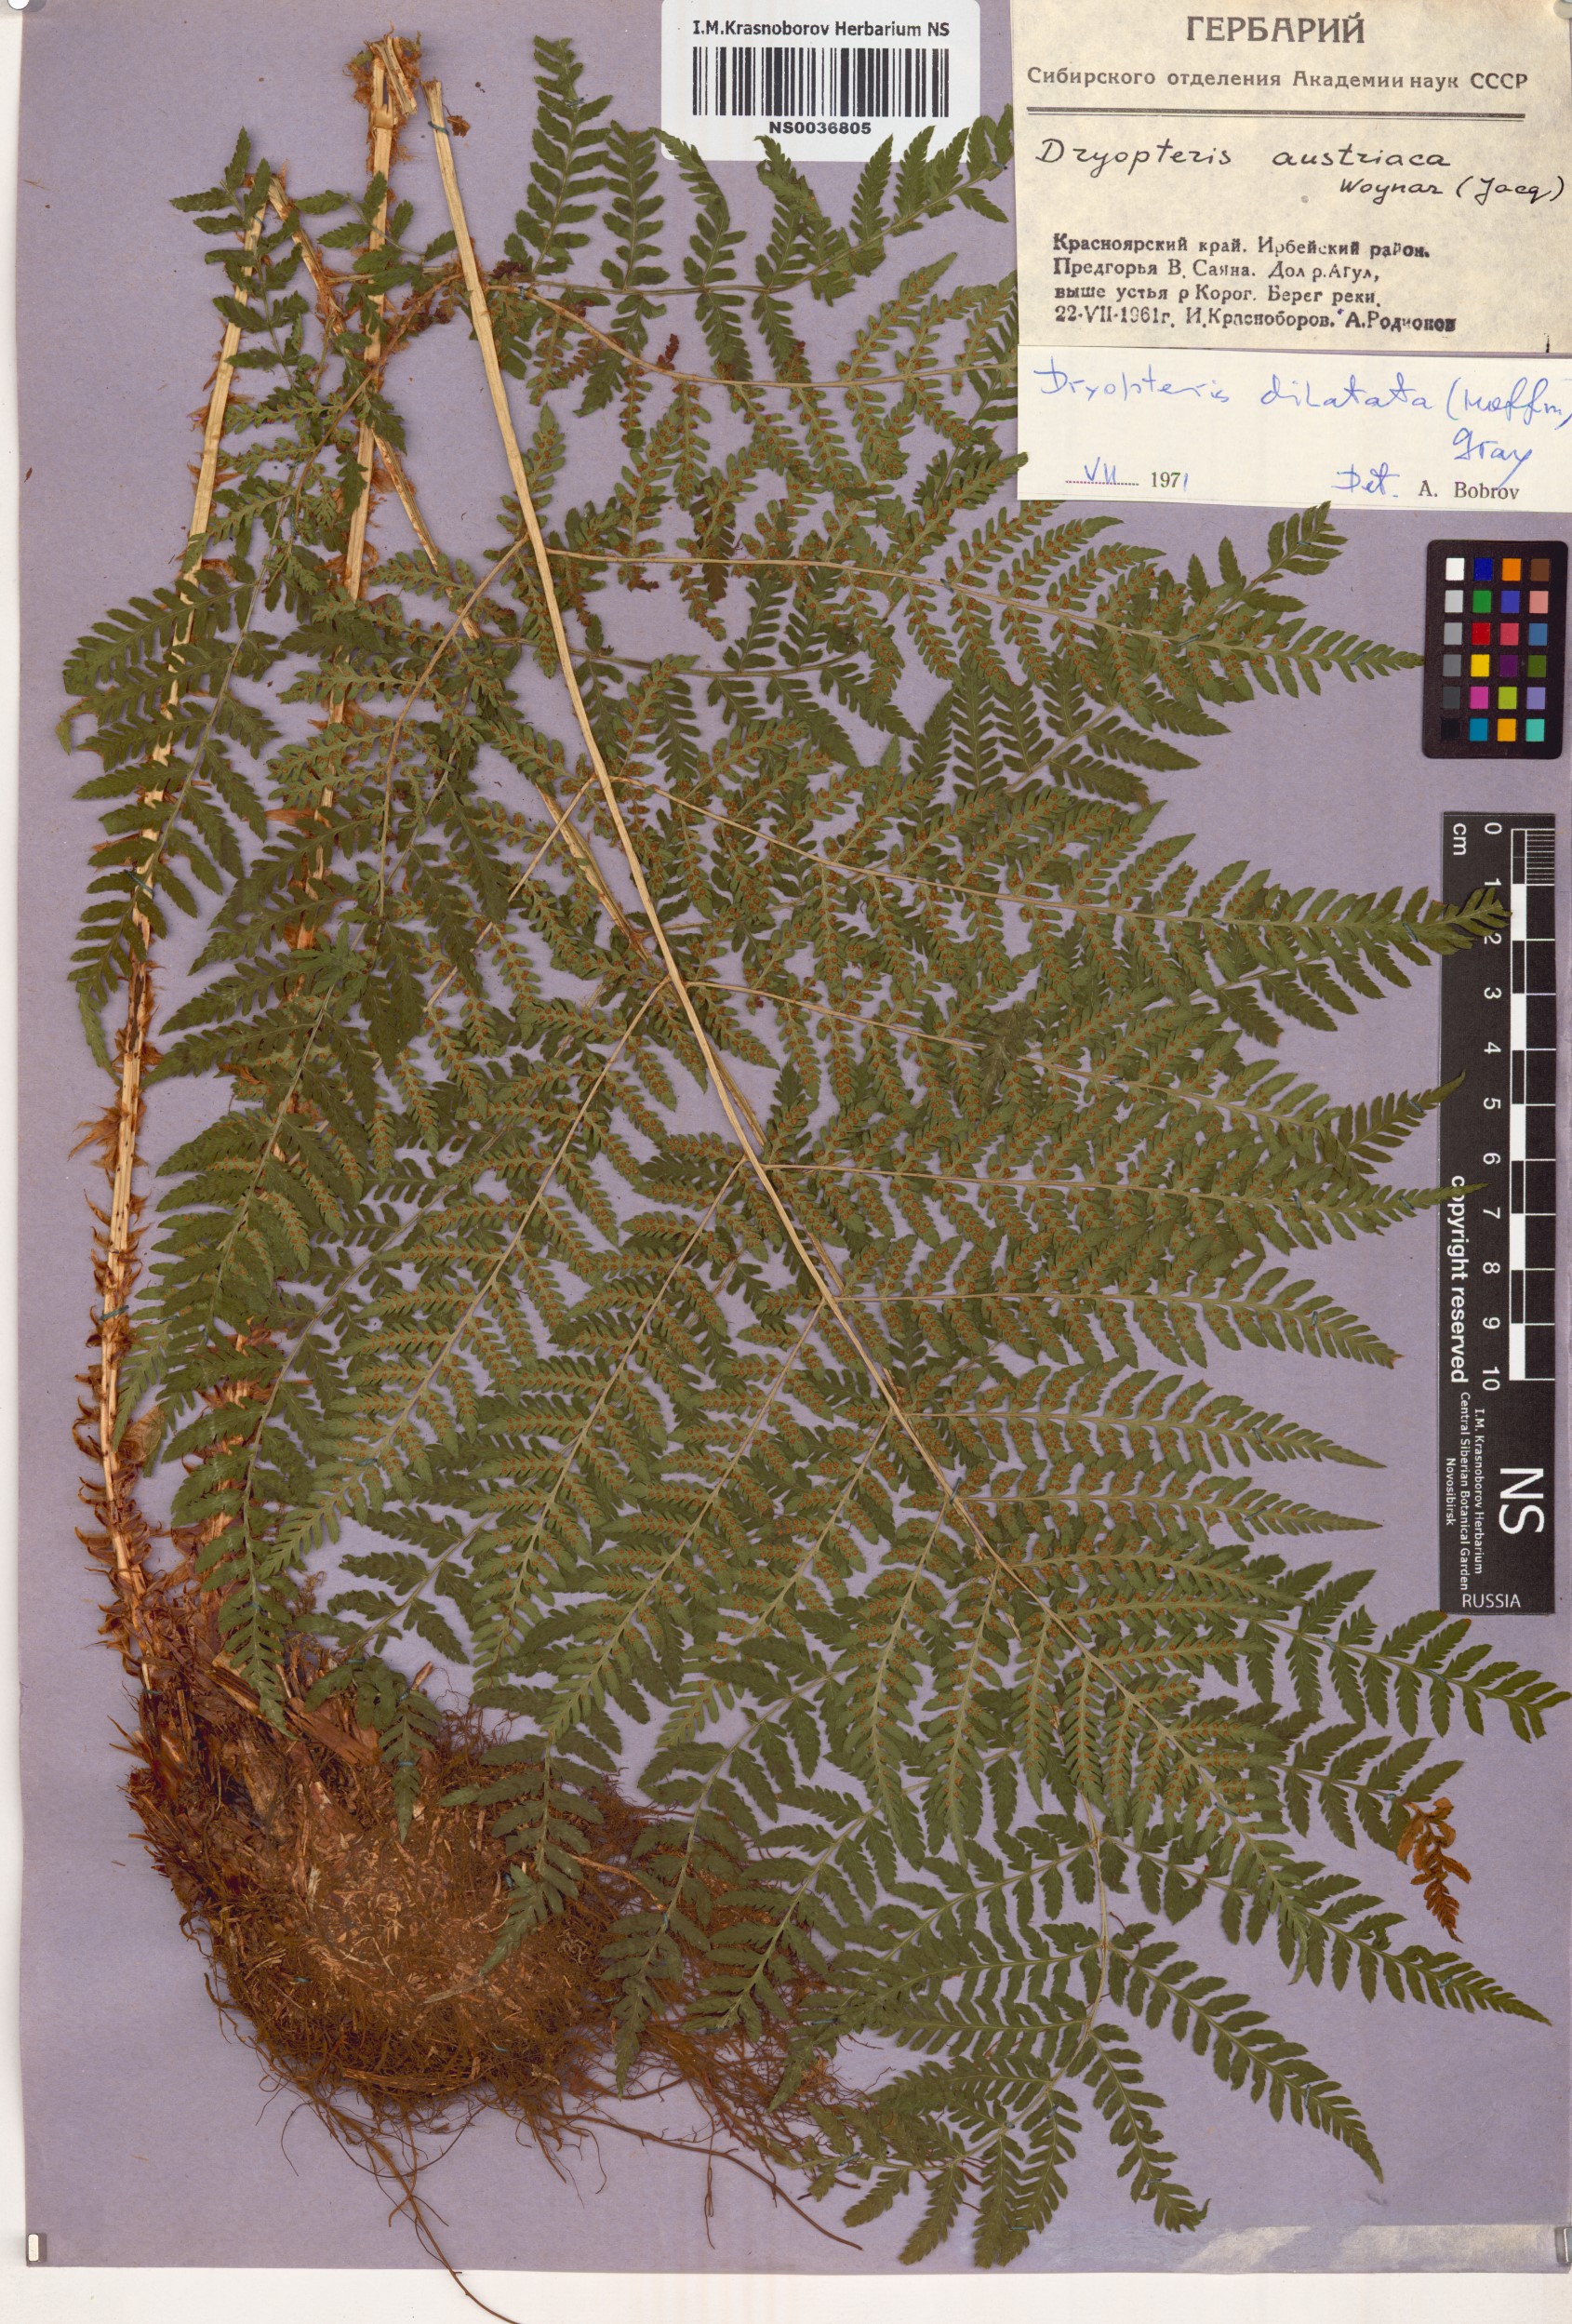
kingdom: Plantae
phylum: Tracheophyta
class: Polypodiopsida
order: Polypodiales
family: Dryopteridaceae
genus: Dryopteris
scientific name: Dryopteris dilatata
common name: Broad buckler-fern
